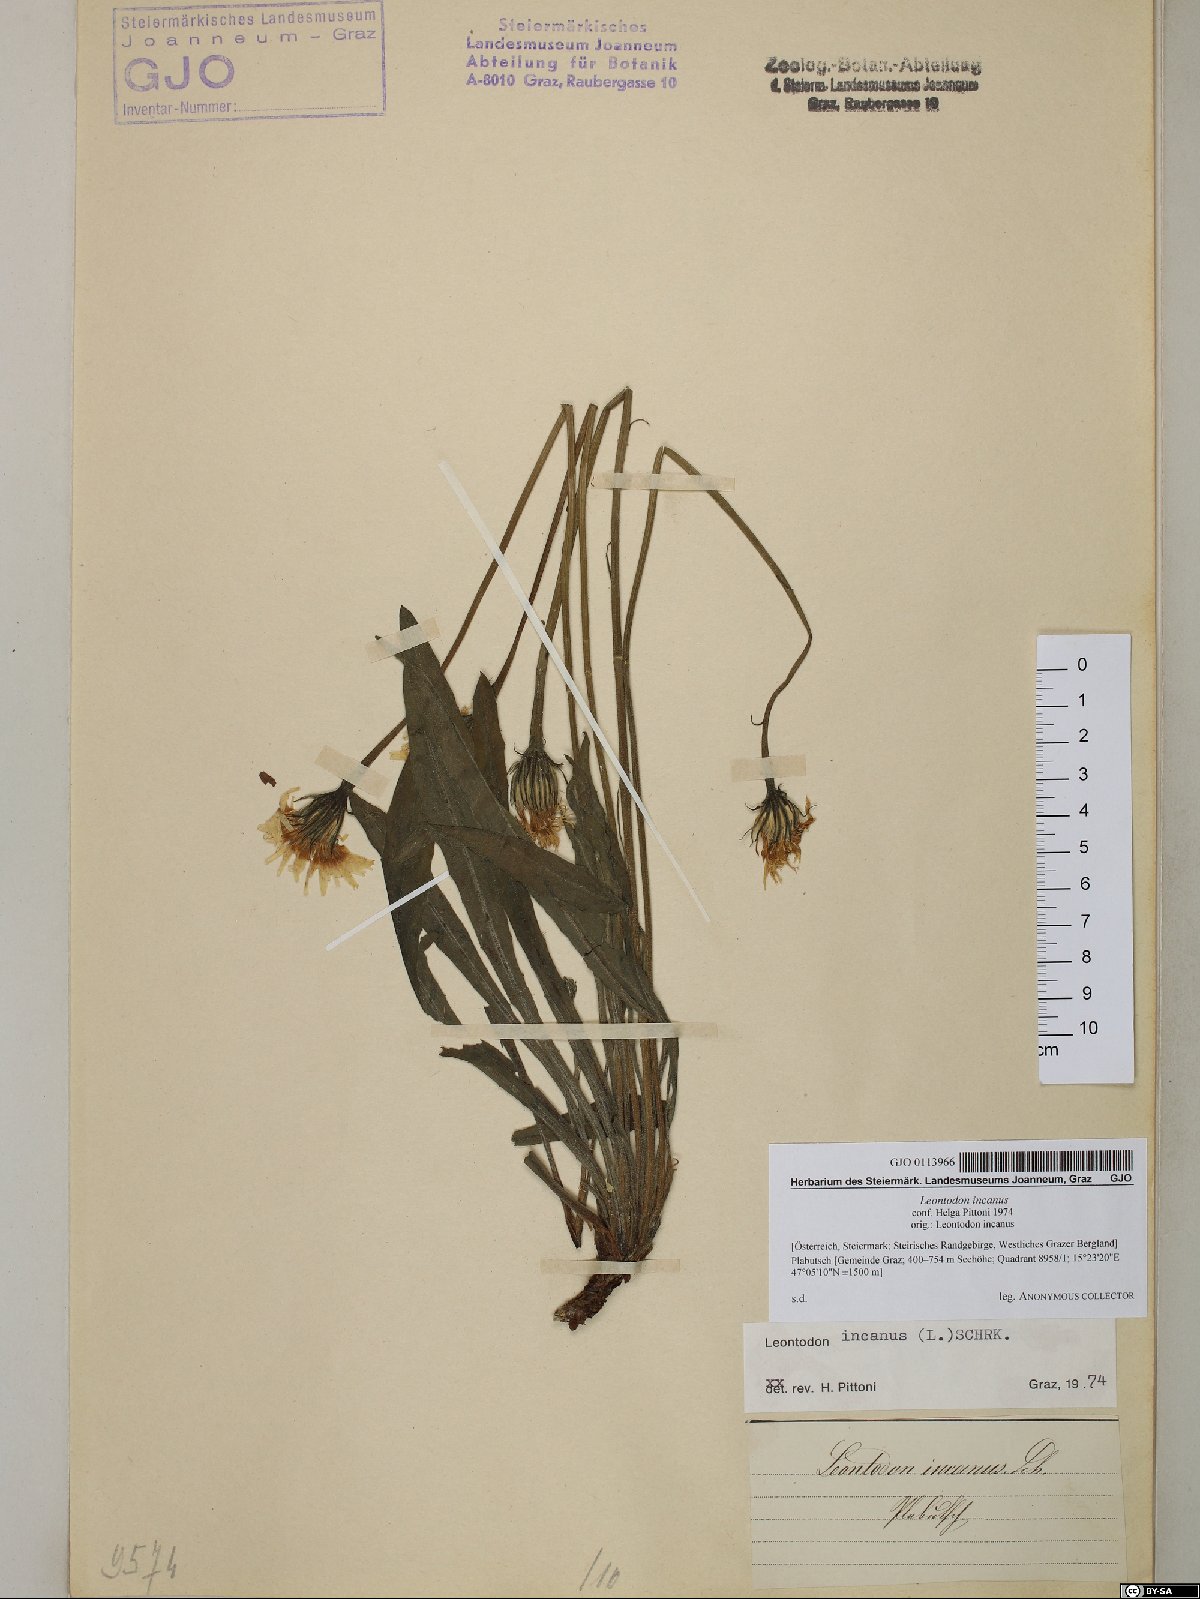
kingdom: Plantae
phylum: Tracheophyta
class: Magnoliopsida
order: Asterales
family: Asteraceae
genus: Leontodon
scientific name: Leontodon incanus
